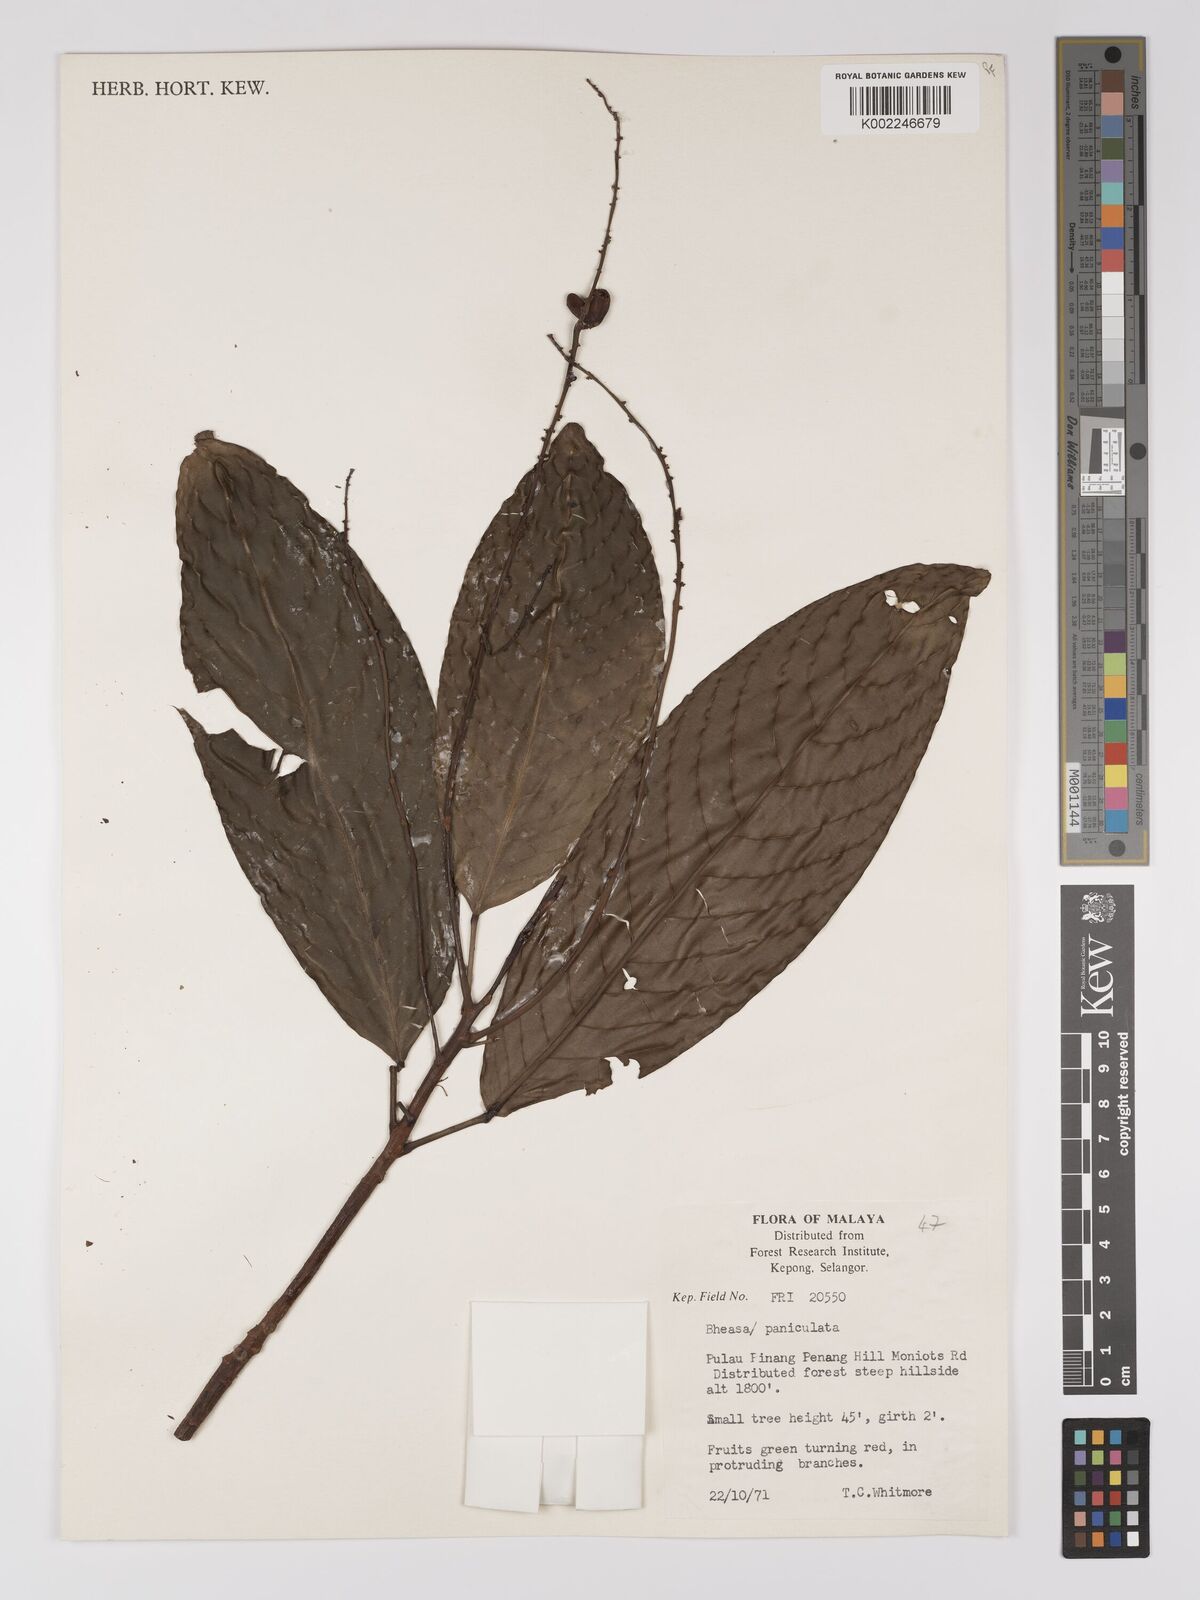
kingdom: Plantae
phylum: Tracheophyta
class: Magnoliopsida
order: Malpighiales
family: Centroplacaceae
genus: Bhesa
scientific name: Bhesa paniculata
